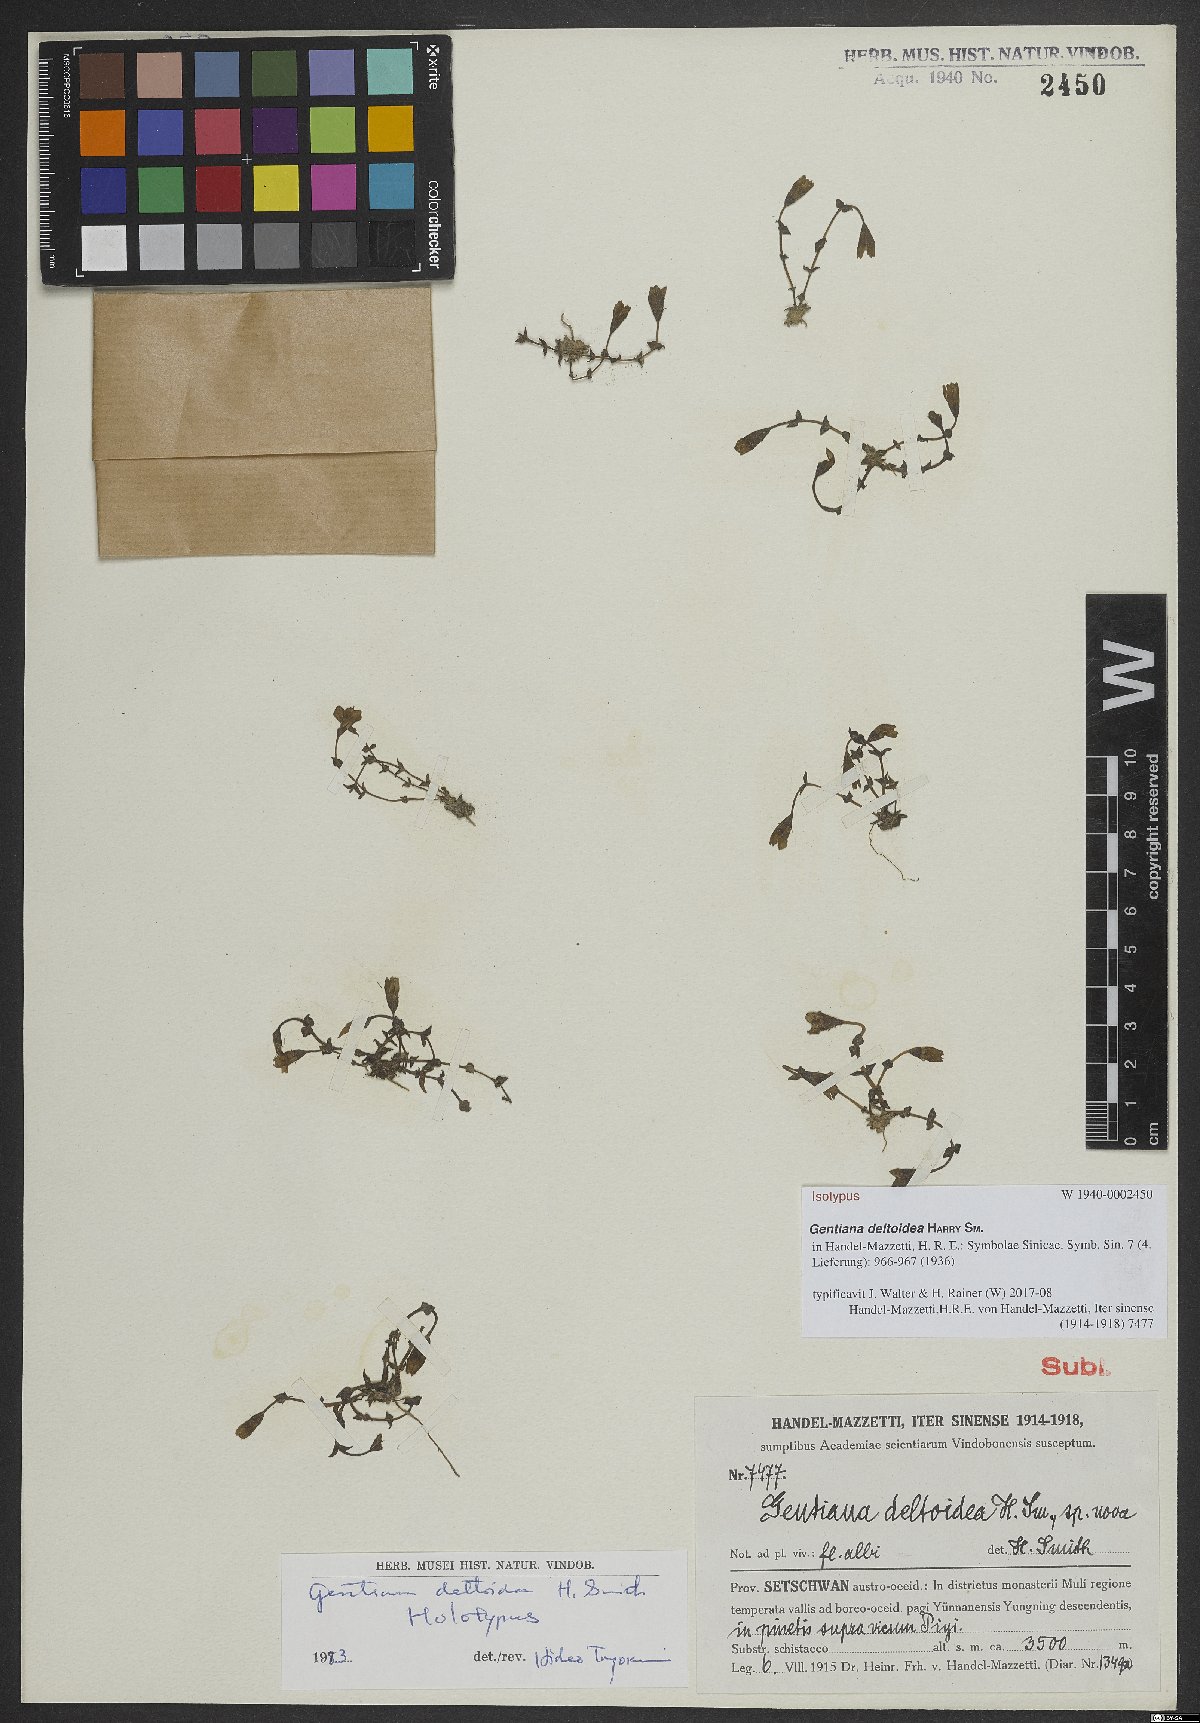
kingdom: Plantae
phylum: Tracheophyta
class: Magnoliopsida
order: Gentianales
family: Gentianaceae
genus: Gentiana
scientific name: Gentiana deltoidea
